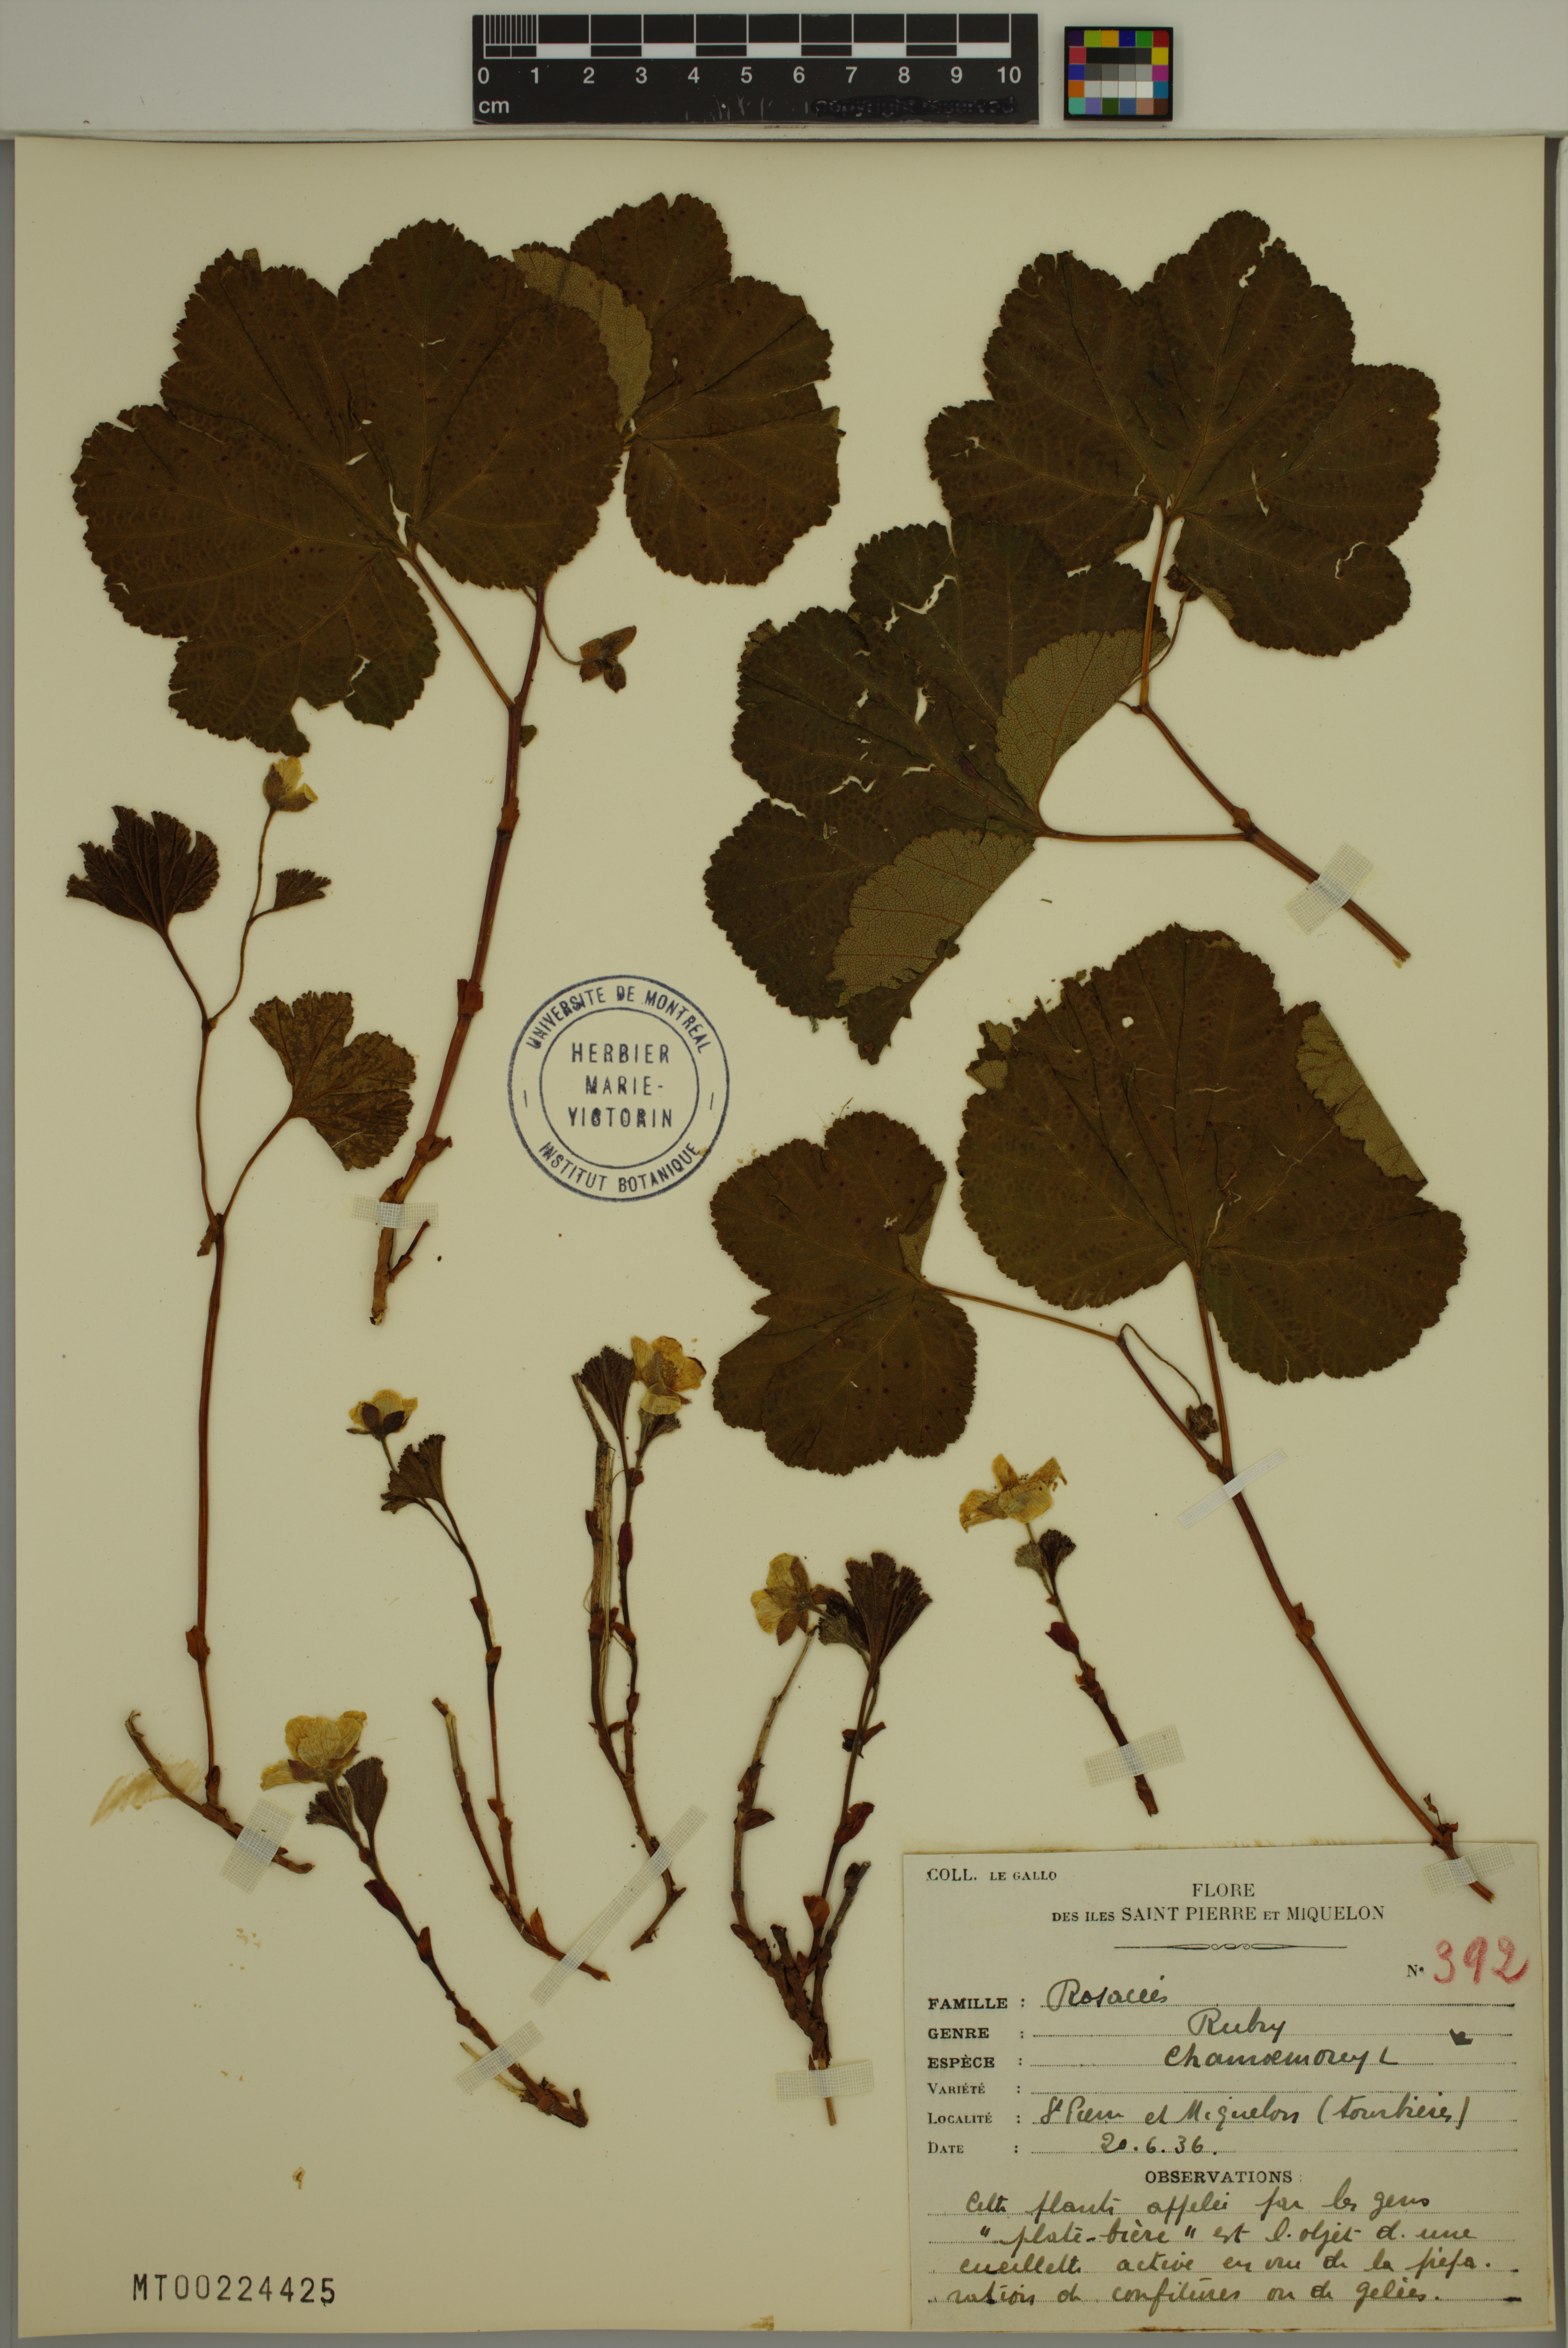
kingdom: Plantae
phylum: Tracheophyta
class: Magnoliopsida
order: Rosales
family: Rosaceae
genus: Rubus
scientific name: Rubus chamaemorus
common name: Cloudberry
